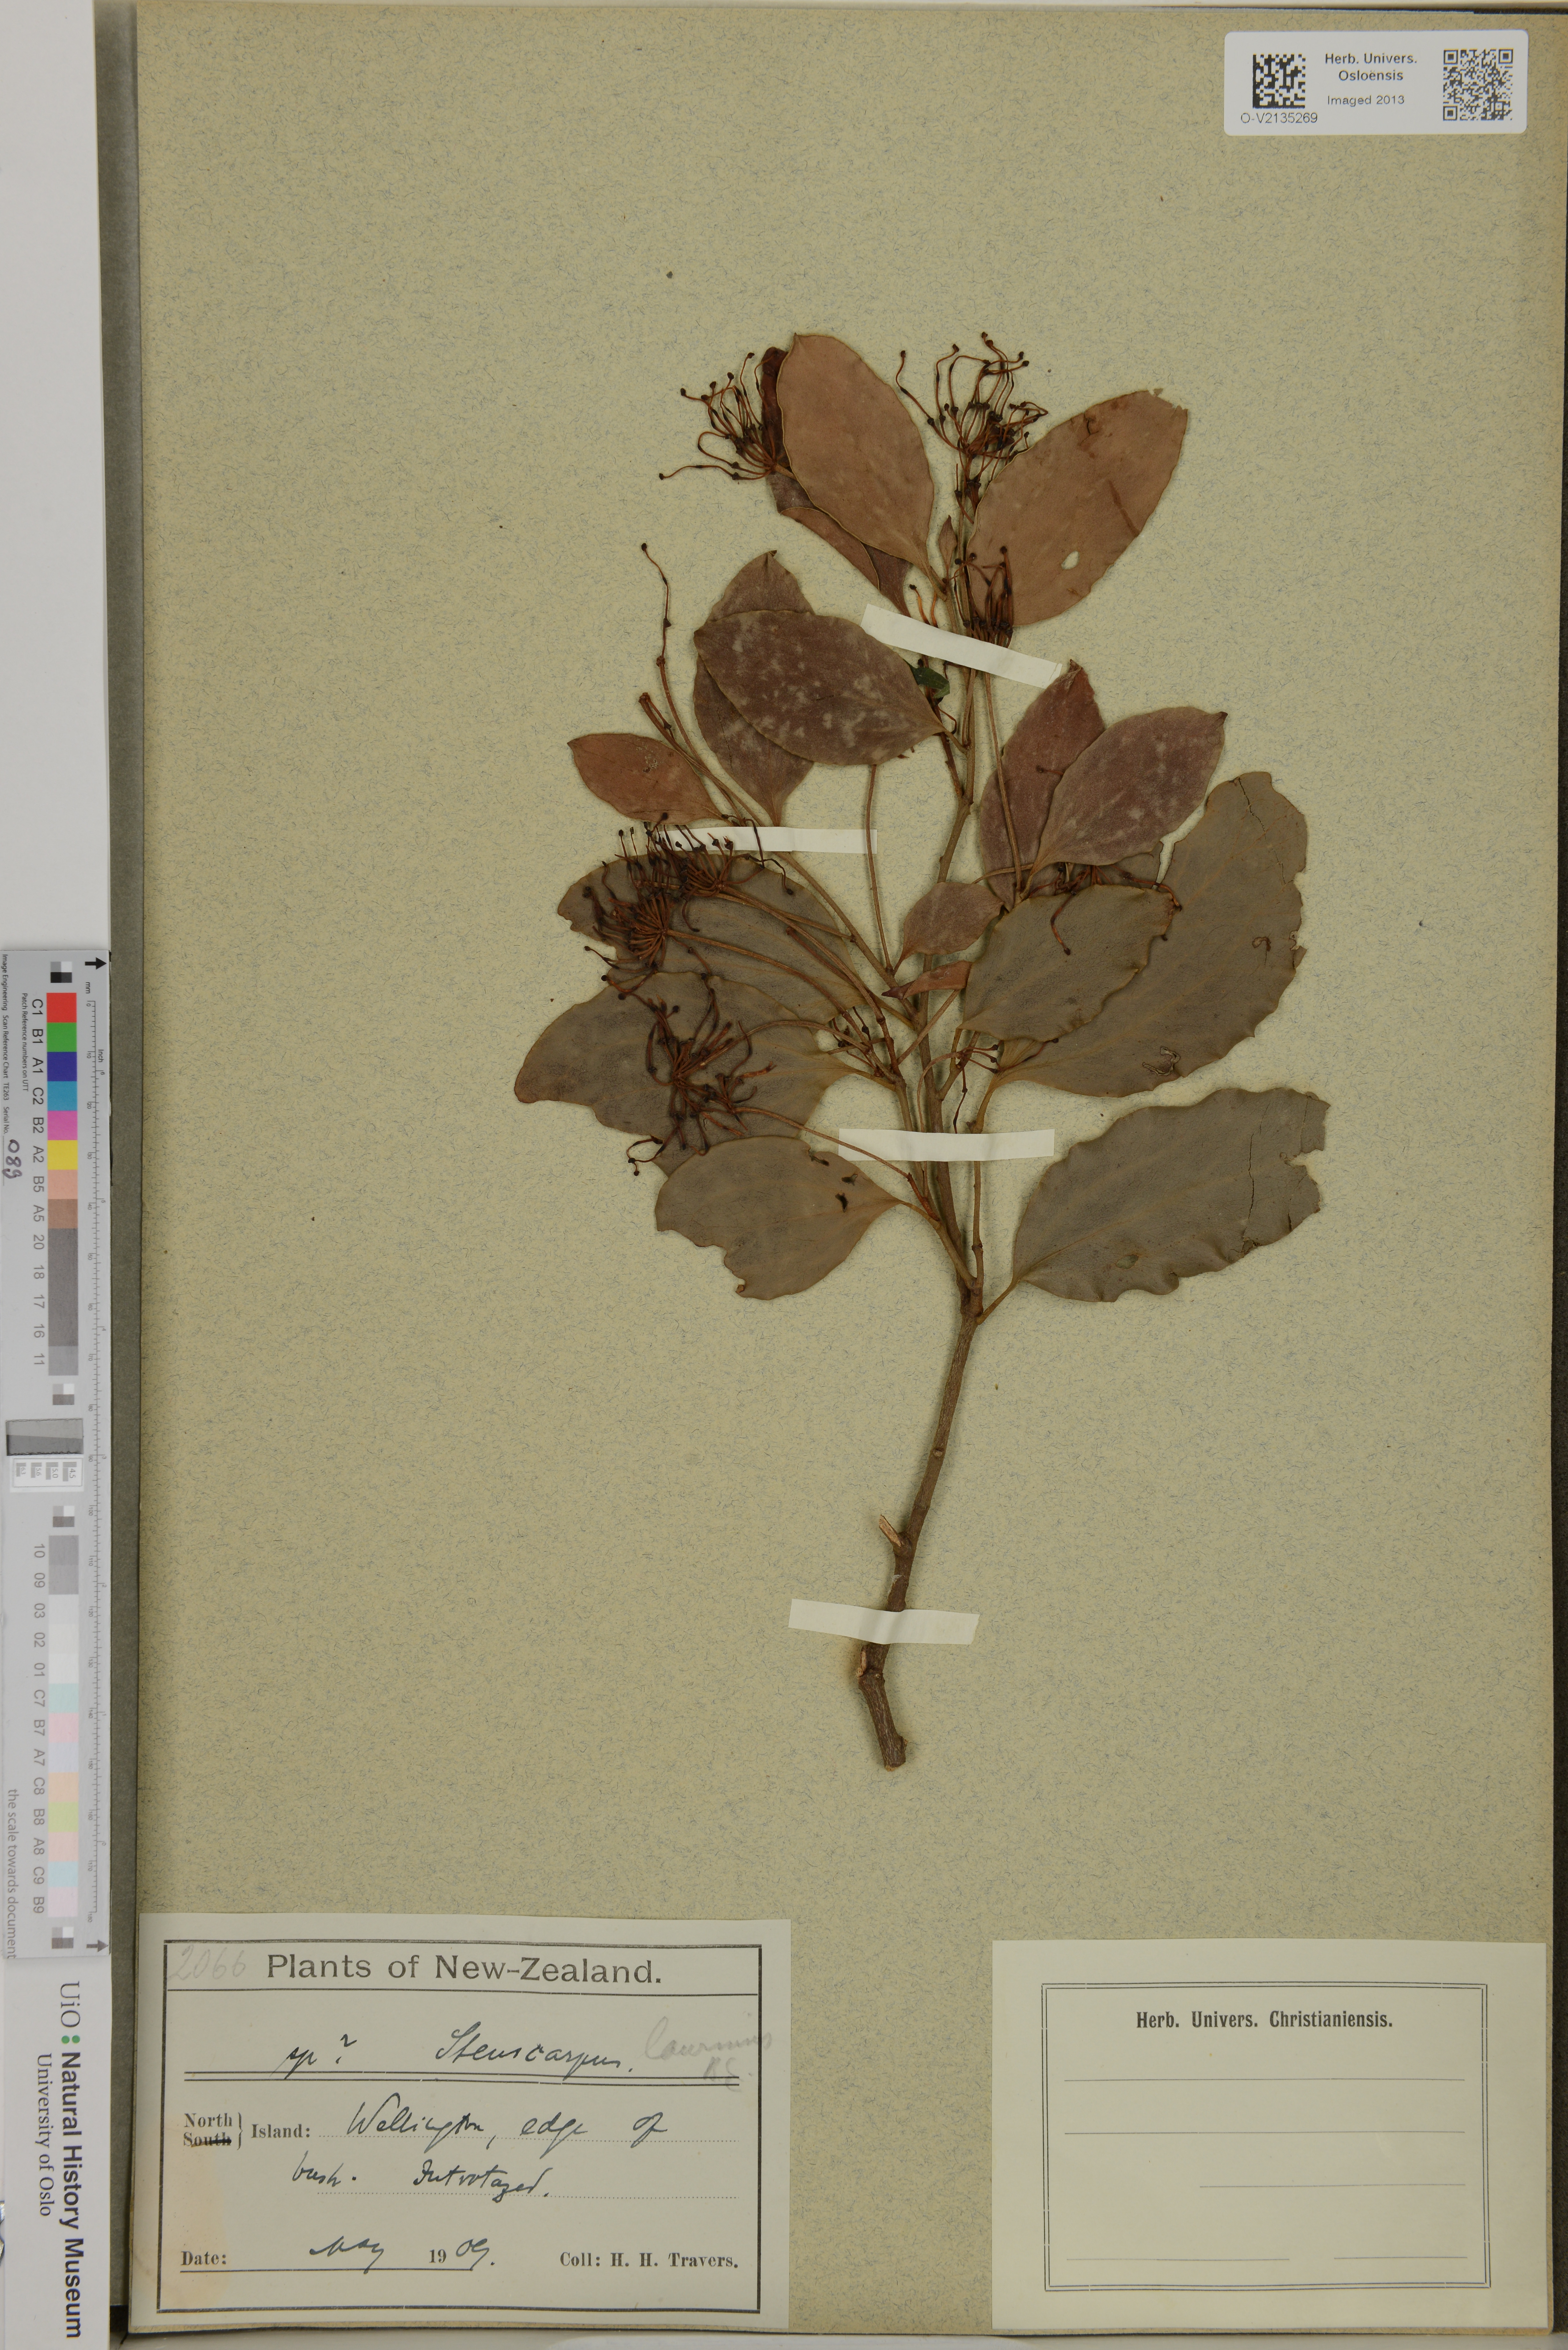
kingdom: Plantae
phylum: Tracheophyta
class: Magnoliopsida
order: Proteales
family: Proteaceae
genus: Stenocarpus
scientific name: Stenocarpus trinervis
